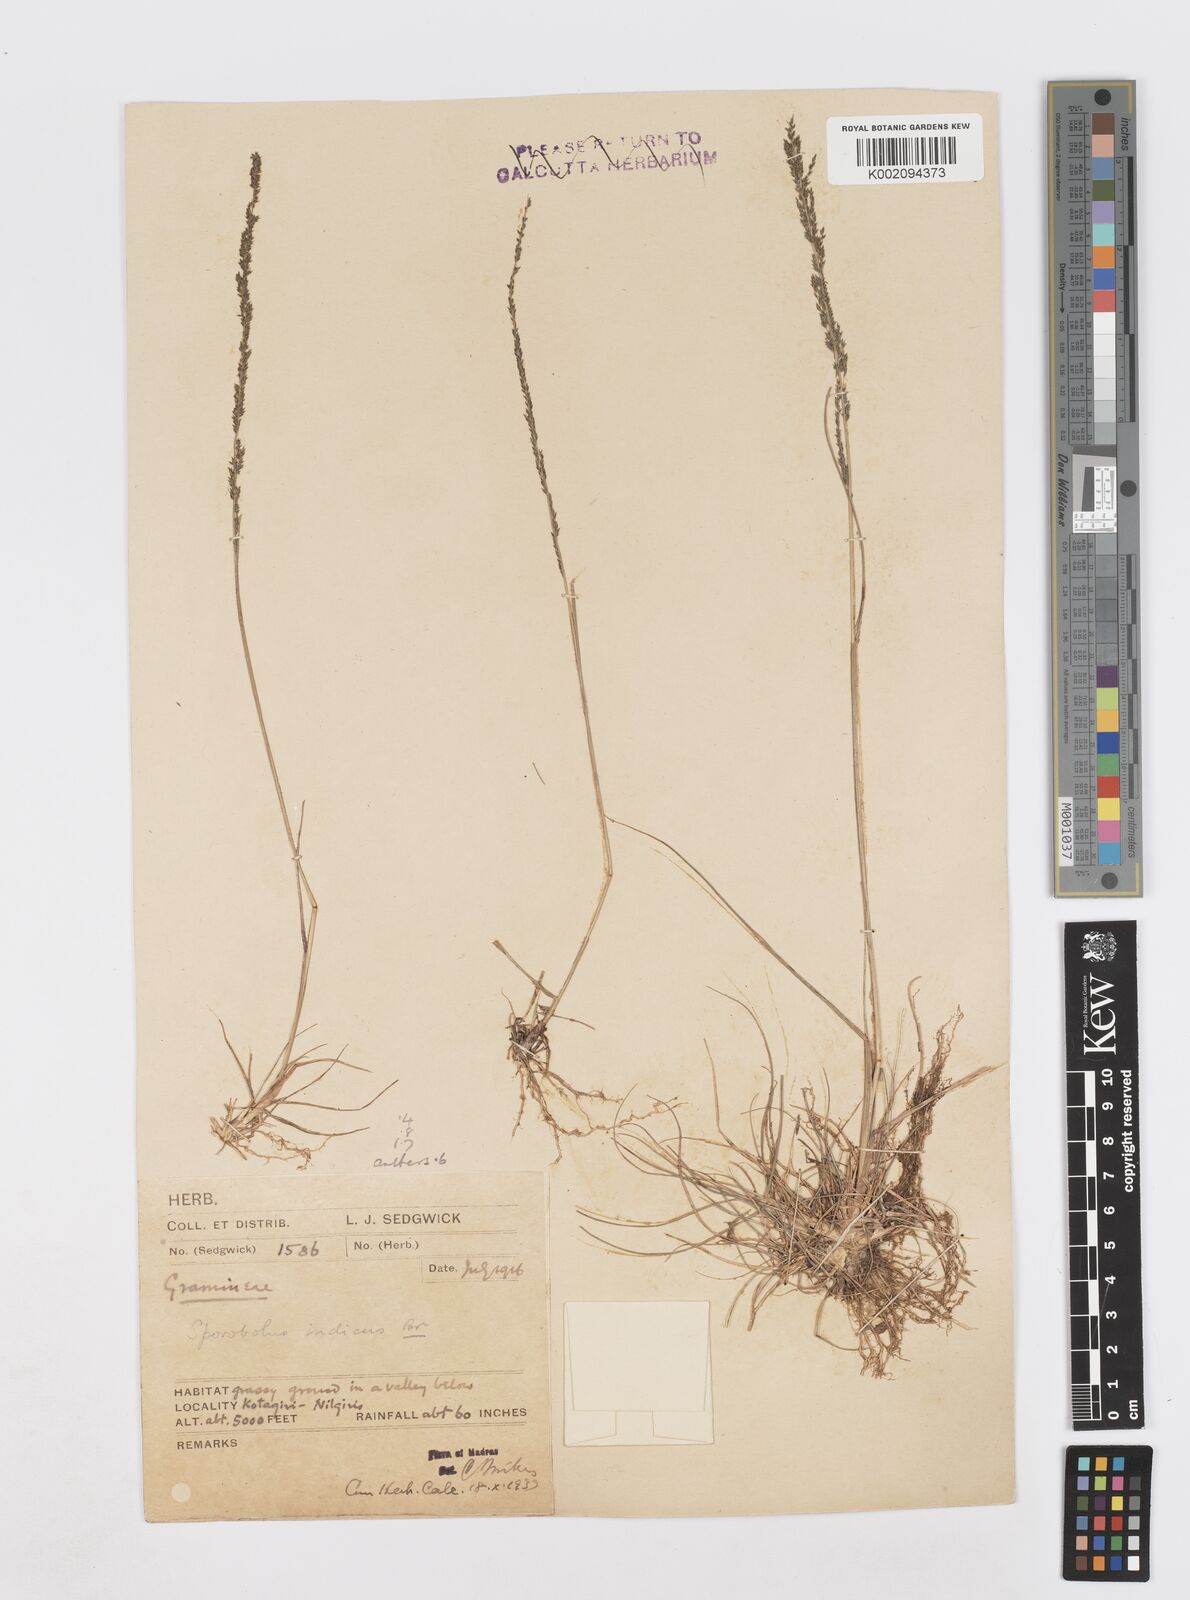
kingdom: Plantae
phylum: Tracheophyta
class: Liliopsida
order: Poales
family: Poaceae
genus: Sporobolus
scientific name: Sporobolus fertilis
